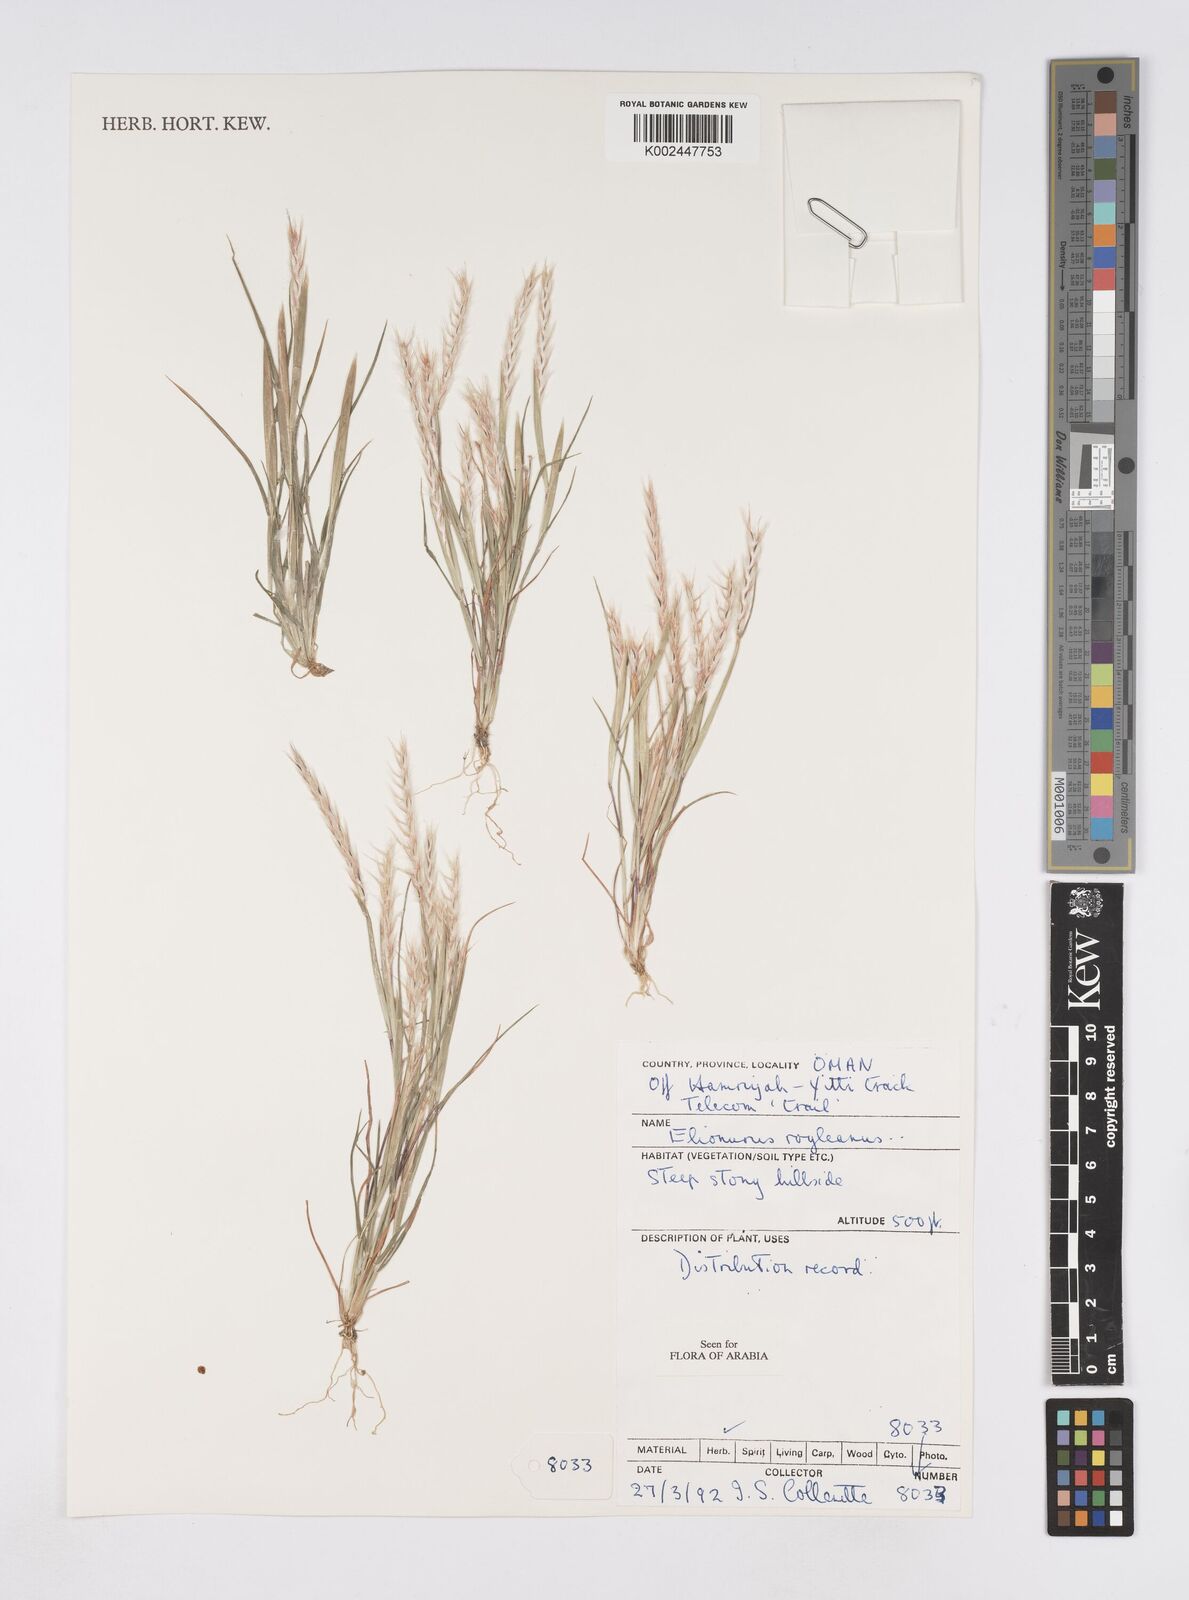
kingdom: Plantae
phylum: Tracheophyta
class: Liliopsida
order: Poales
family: Poaceae
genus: Elionurus
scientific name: Elionurus royleanus
